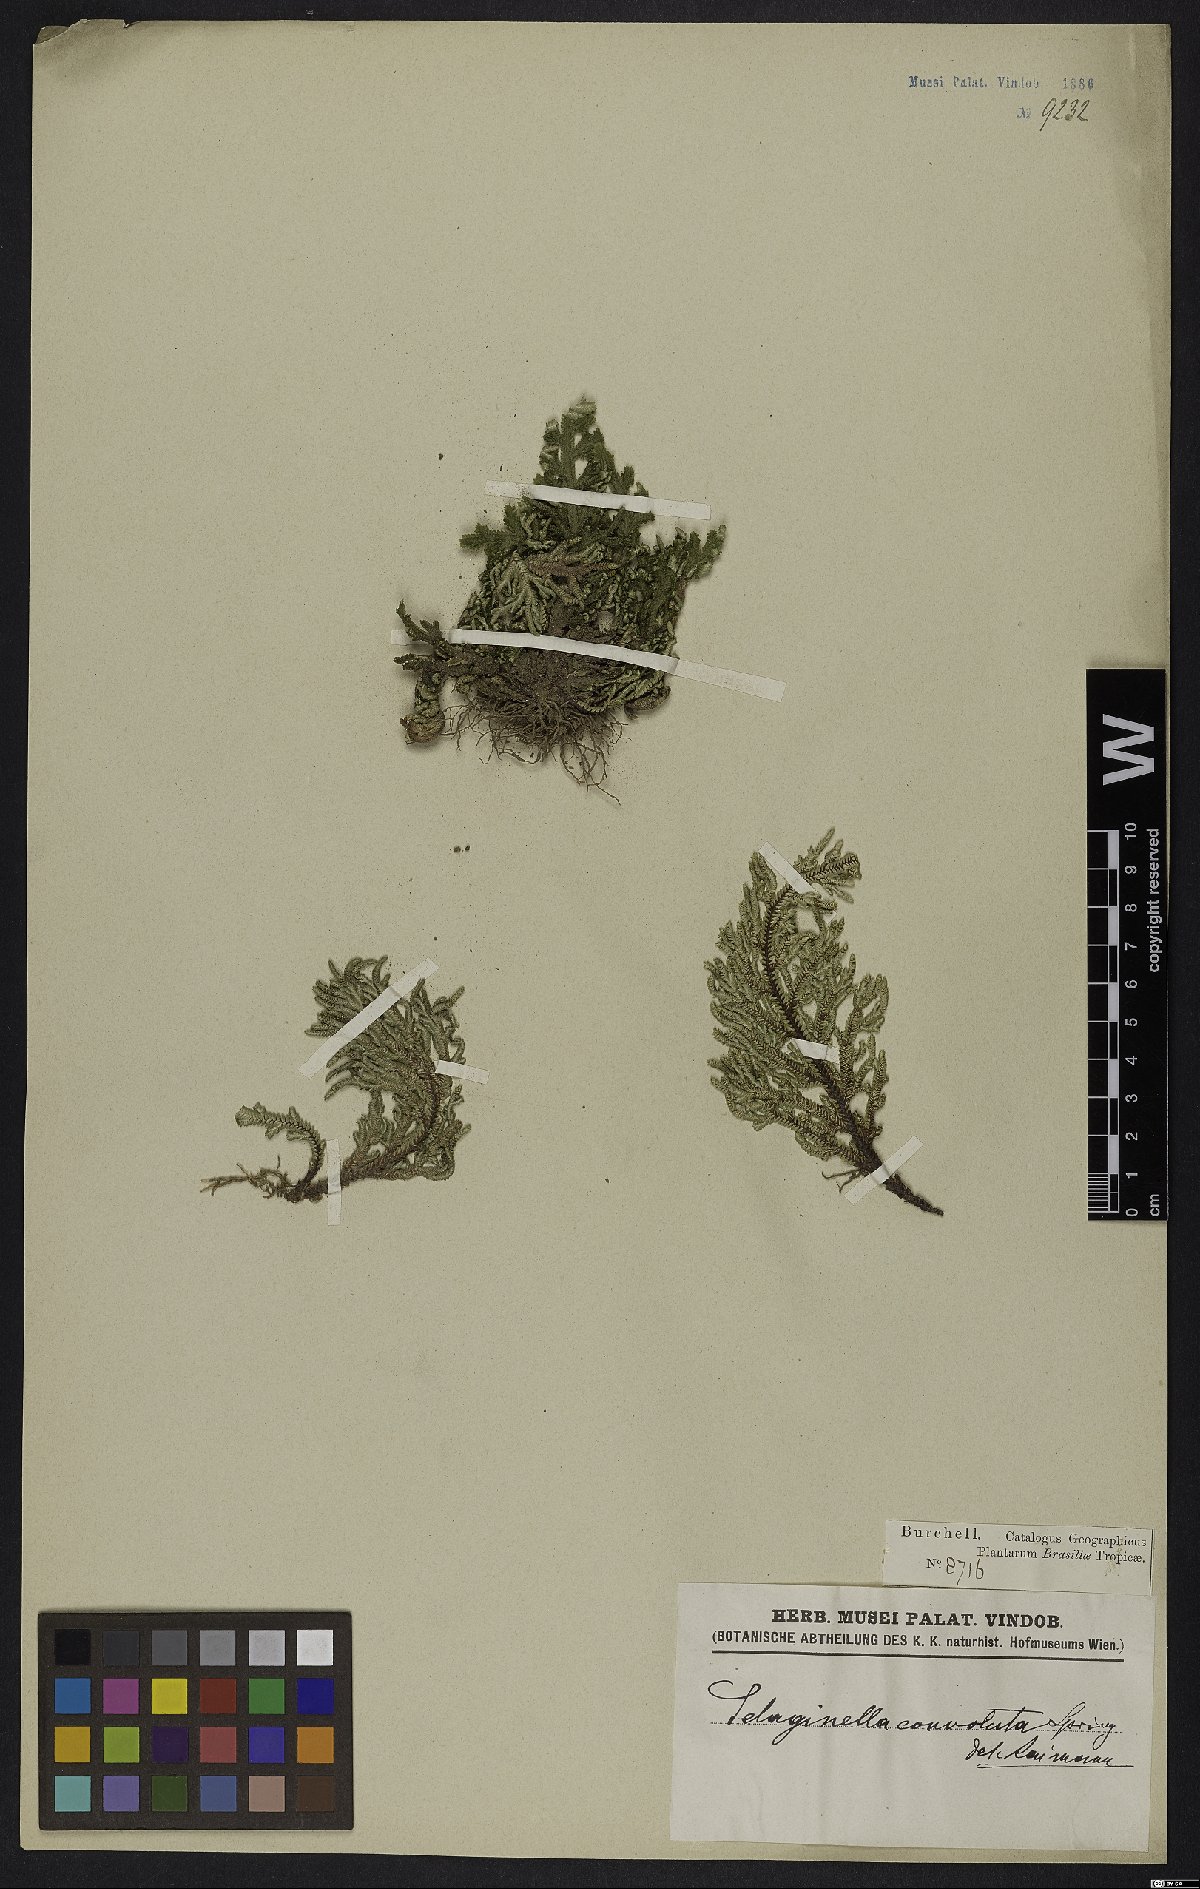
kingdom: Plantae
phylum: Tracheophyta
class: Lycopodiopsida
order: Selaginellales
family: Selaginellaceae
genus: Selaginella
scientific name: Selaginella convoluta
